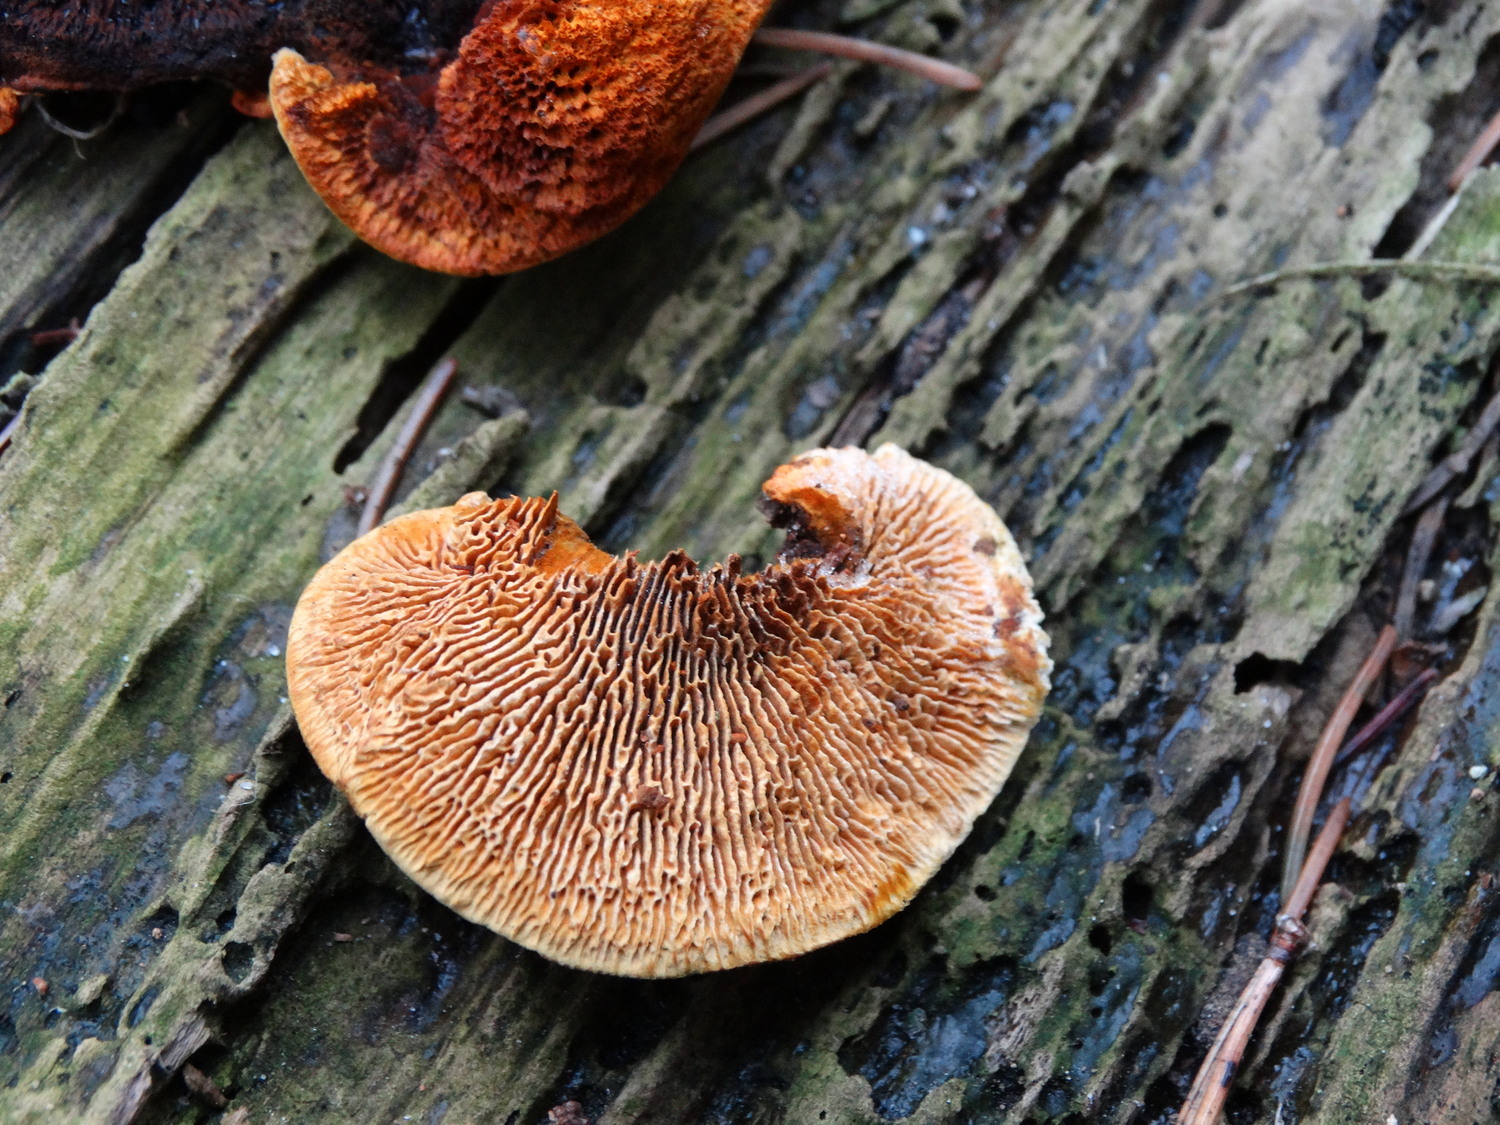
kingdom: Fungi
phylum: Basidiomycota
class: Agaricomycetes
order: Gloeophyllales
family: Gloeophyllaceae
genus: Gloeophyllum
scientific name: Gloeophyllum sepiarium
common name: fyrre-korkhat
